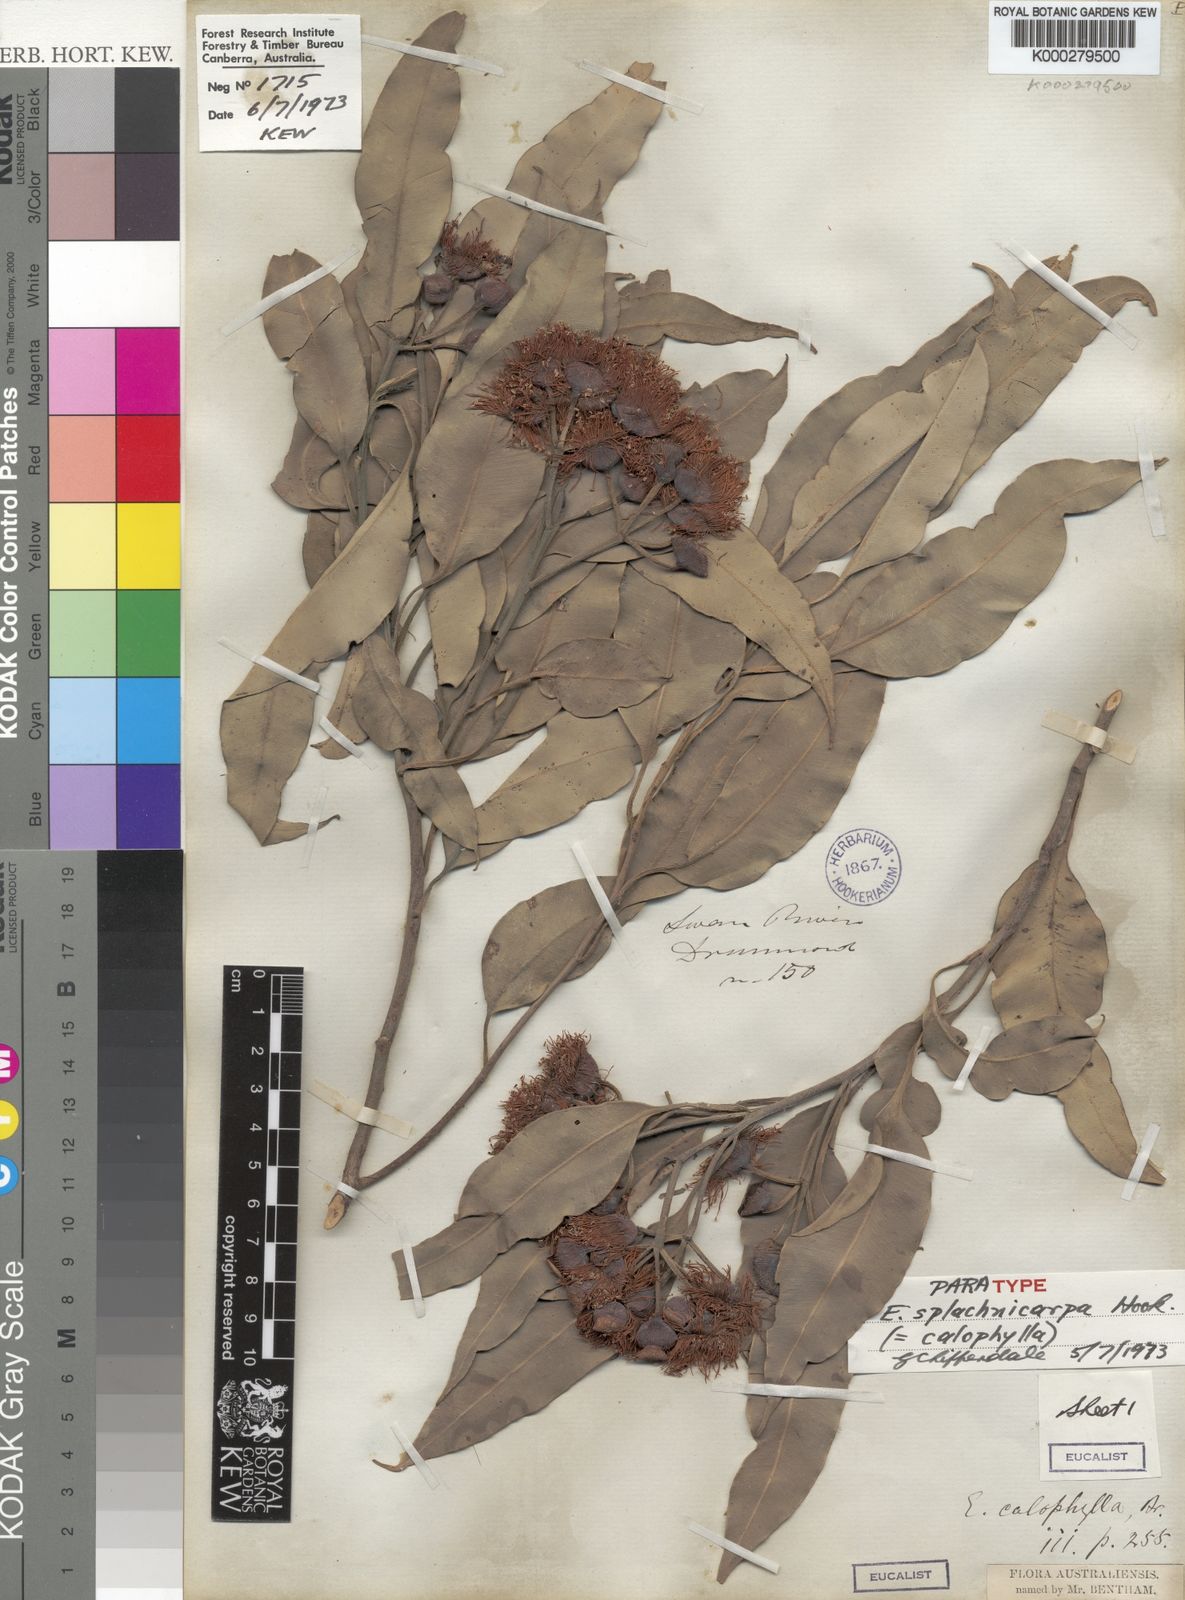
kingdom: Plantae
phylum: Tracheophyta
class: Magnoliopsida
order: Myrtales
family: Myrtaceae
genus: Corymbia
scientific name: Corymbia calophylla
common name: Marri
